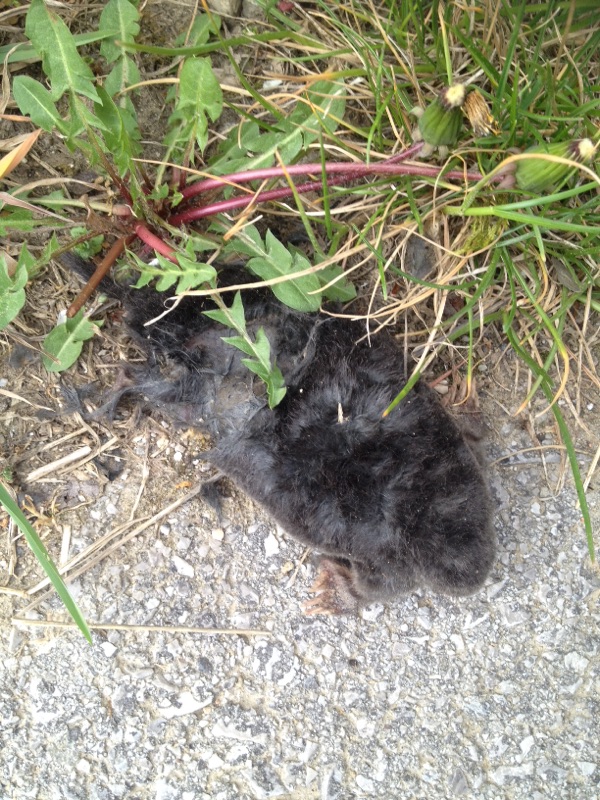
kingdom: Animalia
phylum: Chordata
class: Mammalia
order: Soricomorpha
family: Talpidae
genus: Talpa
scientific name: Talpa europaea
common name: European mole
